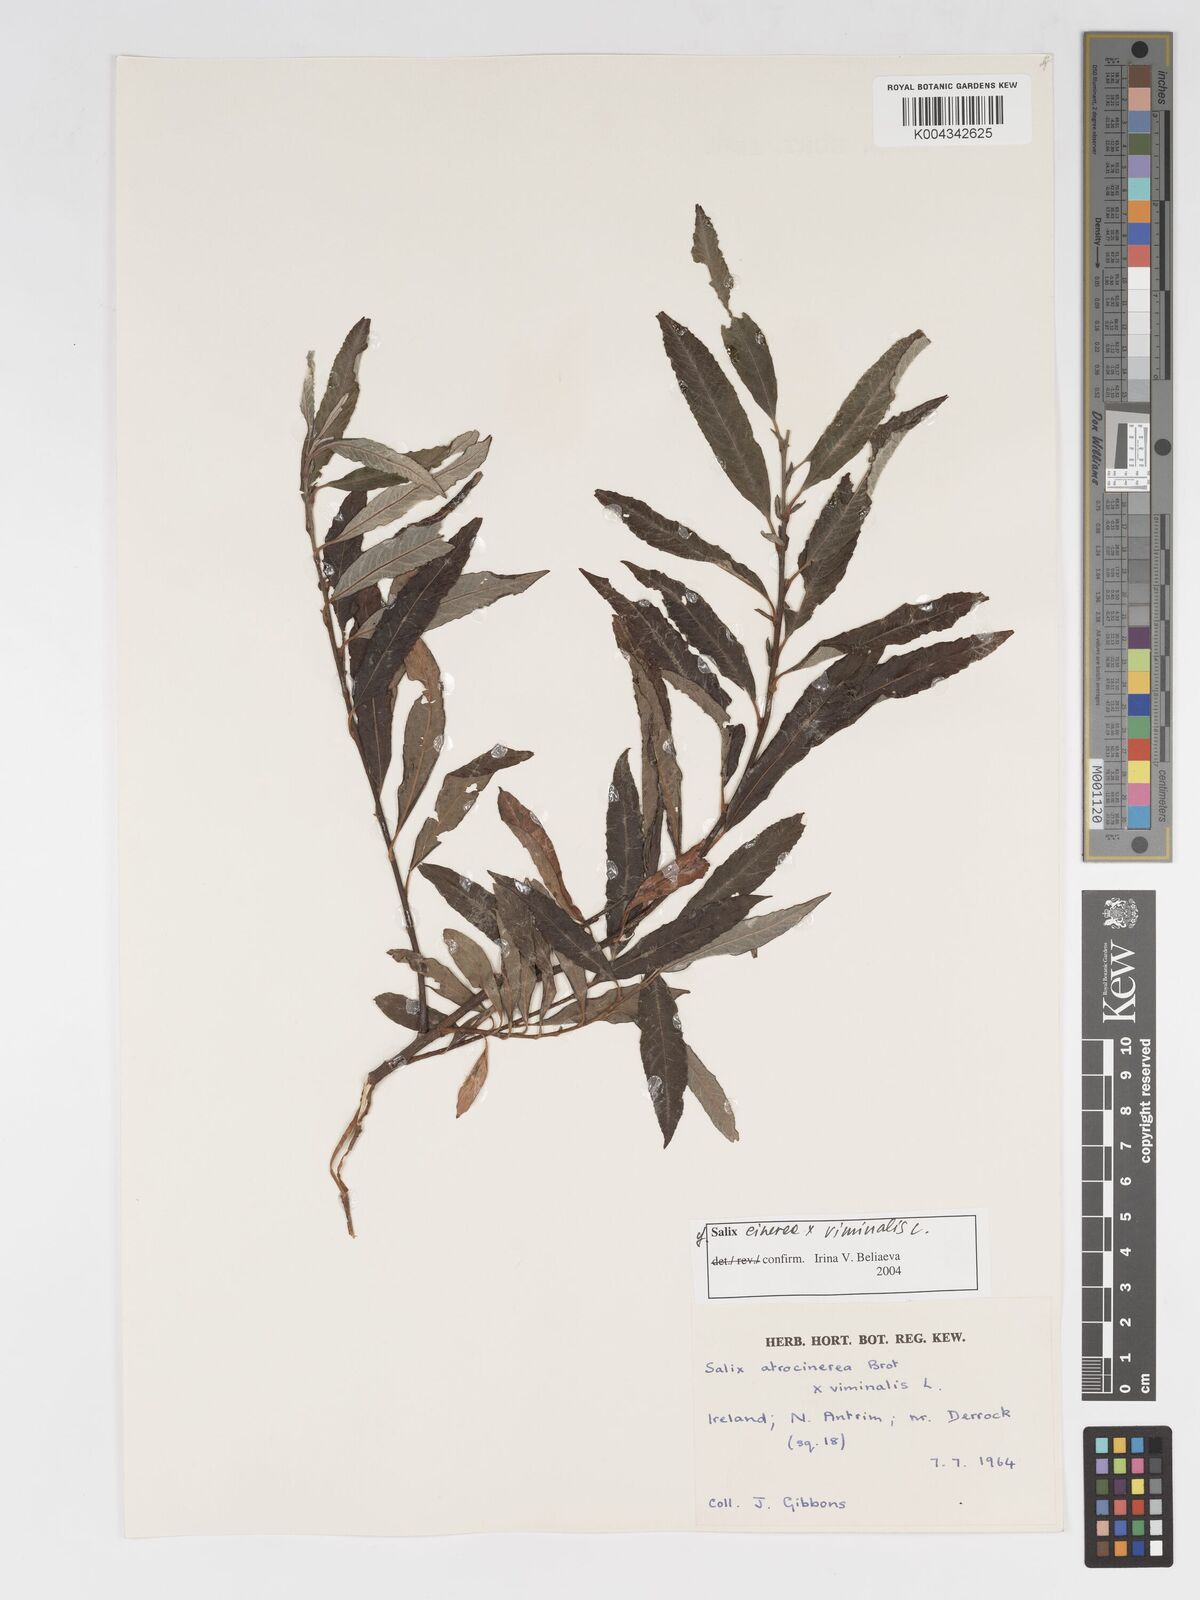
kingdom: Plantae
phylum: Tracheophyta
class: Magnoliopsida
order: Malpighiales
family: Salicaceae
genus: Salix
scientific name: Salix cinerea
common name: Common sallow
